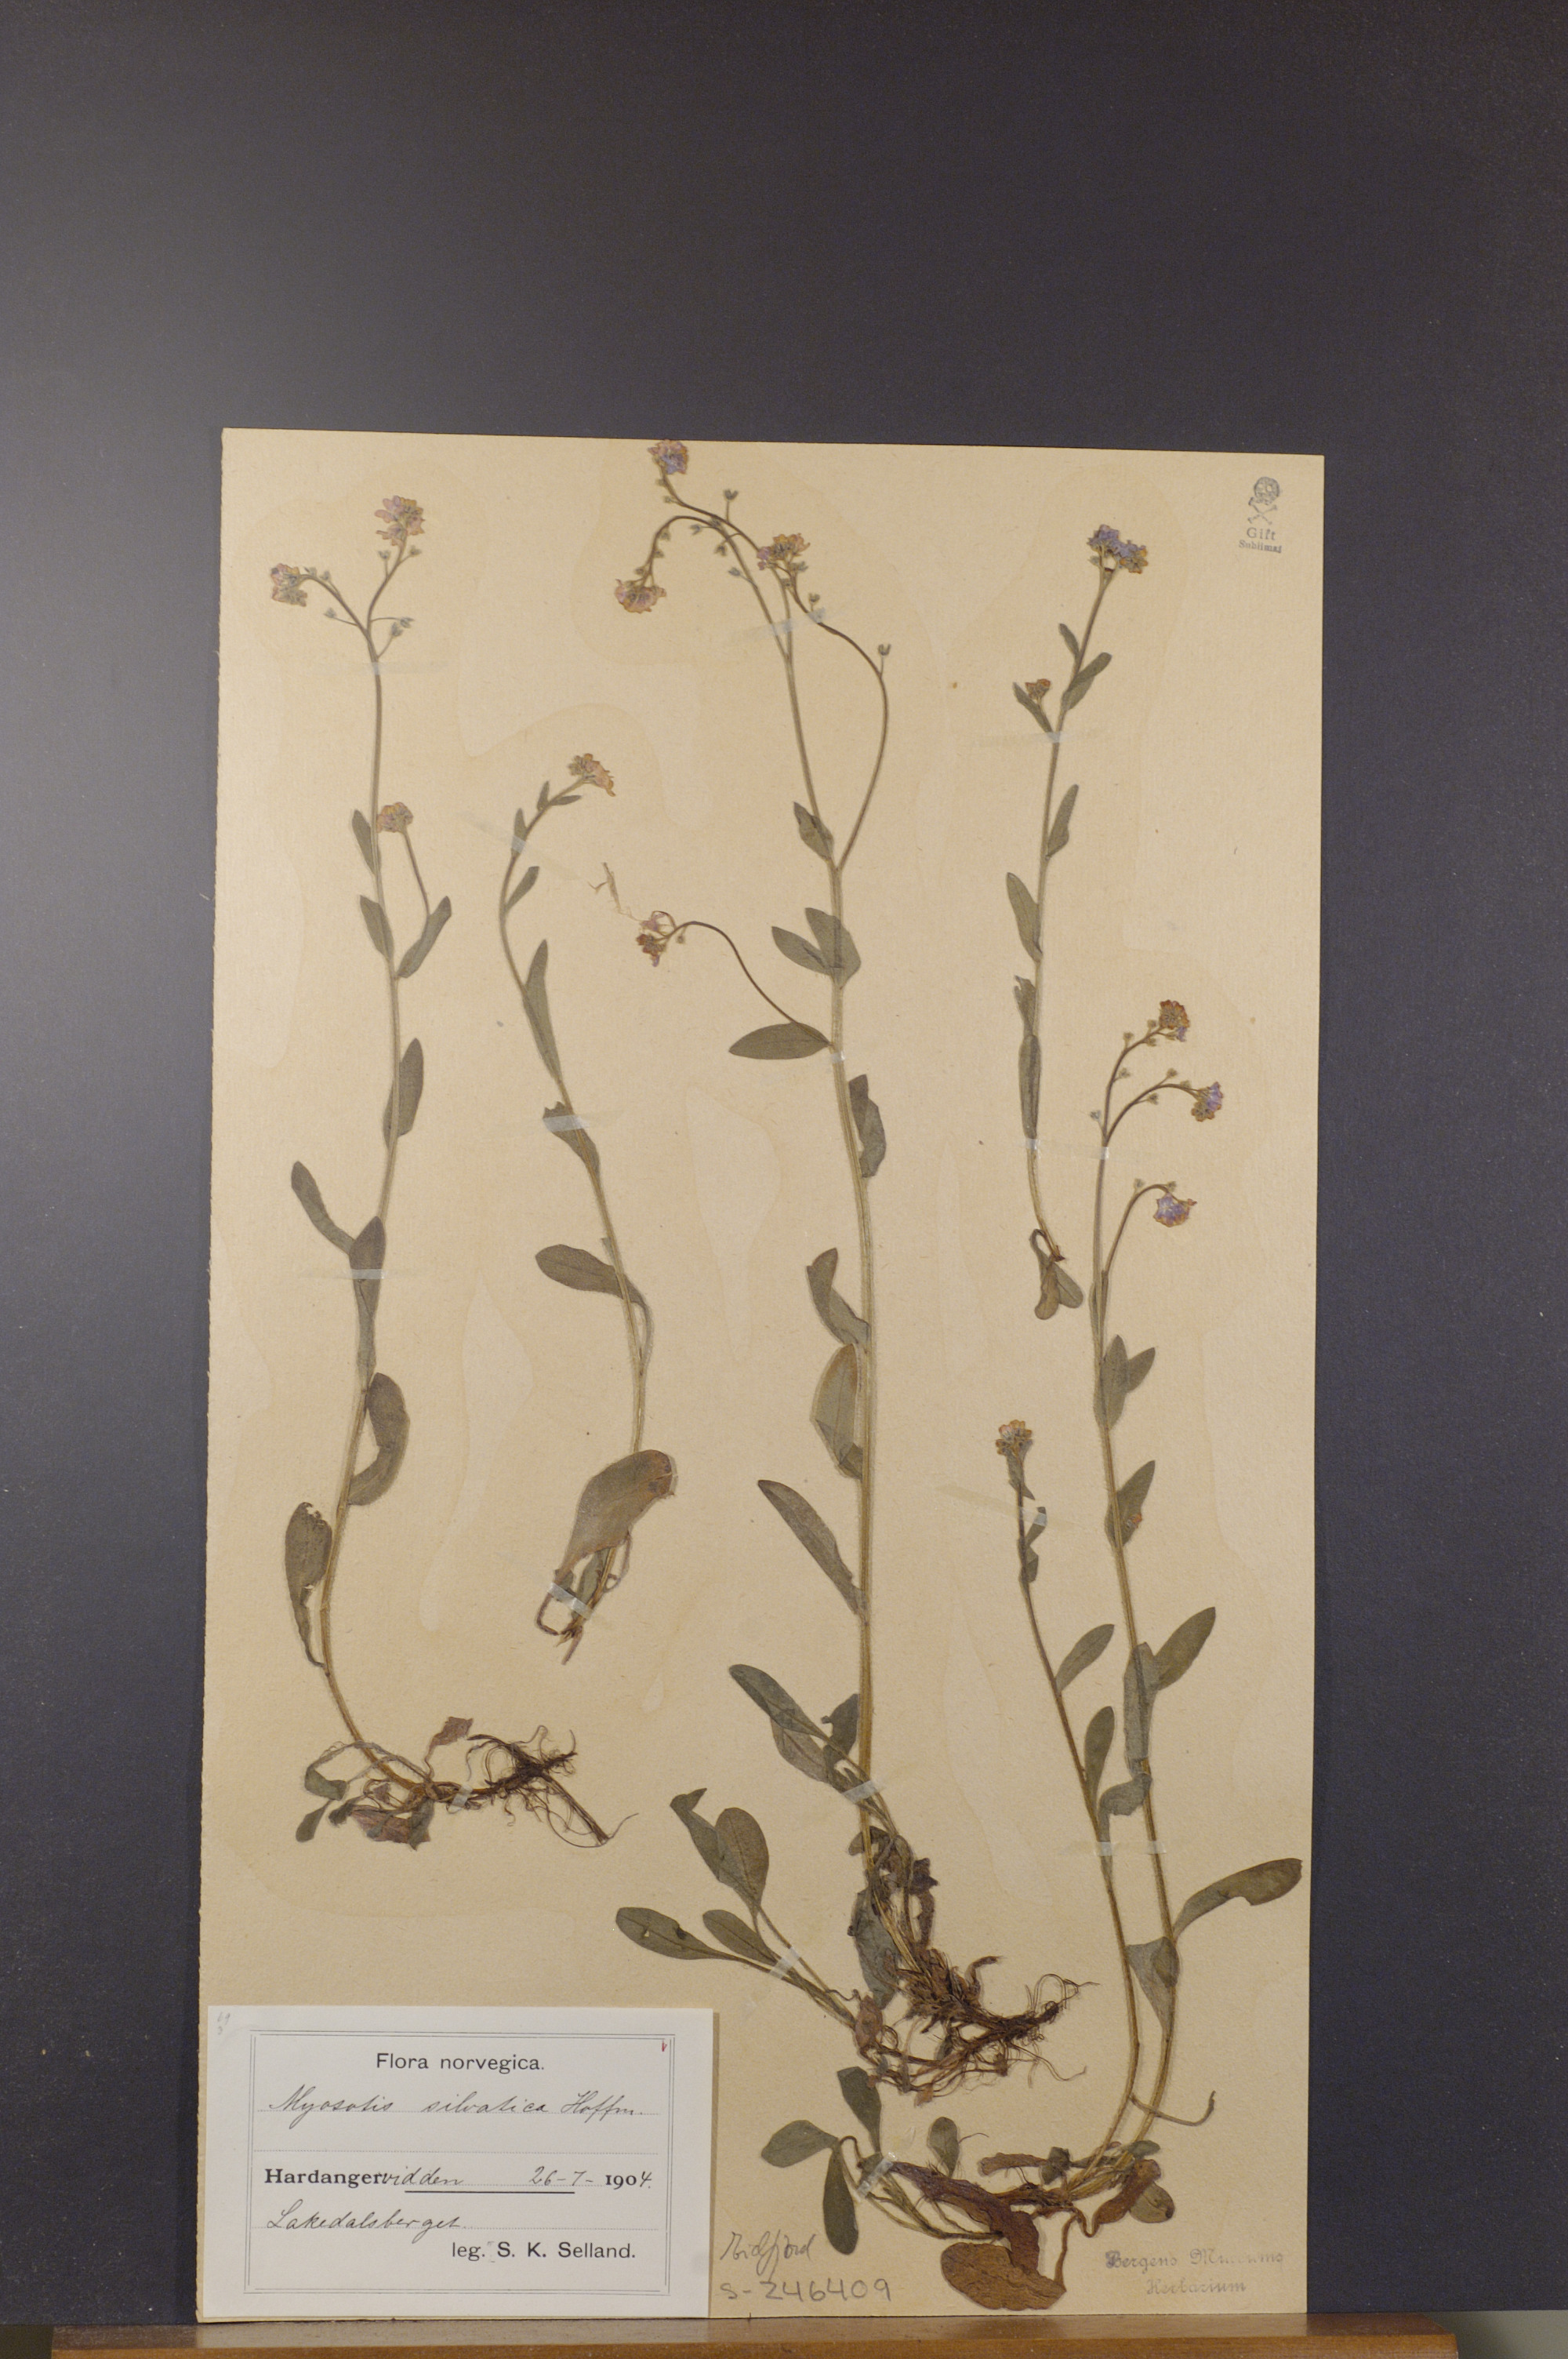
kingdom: Plantae
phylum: Tracheophyta
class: Magnoliopsida
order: Boraginales
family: Boraginaceae
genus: Myosotis
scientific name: Myosotis decumbens
